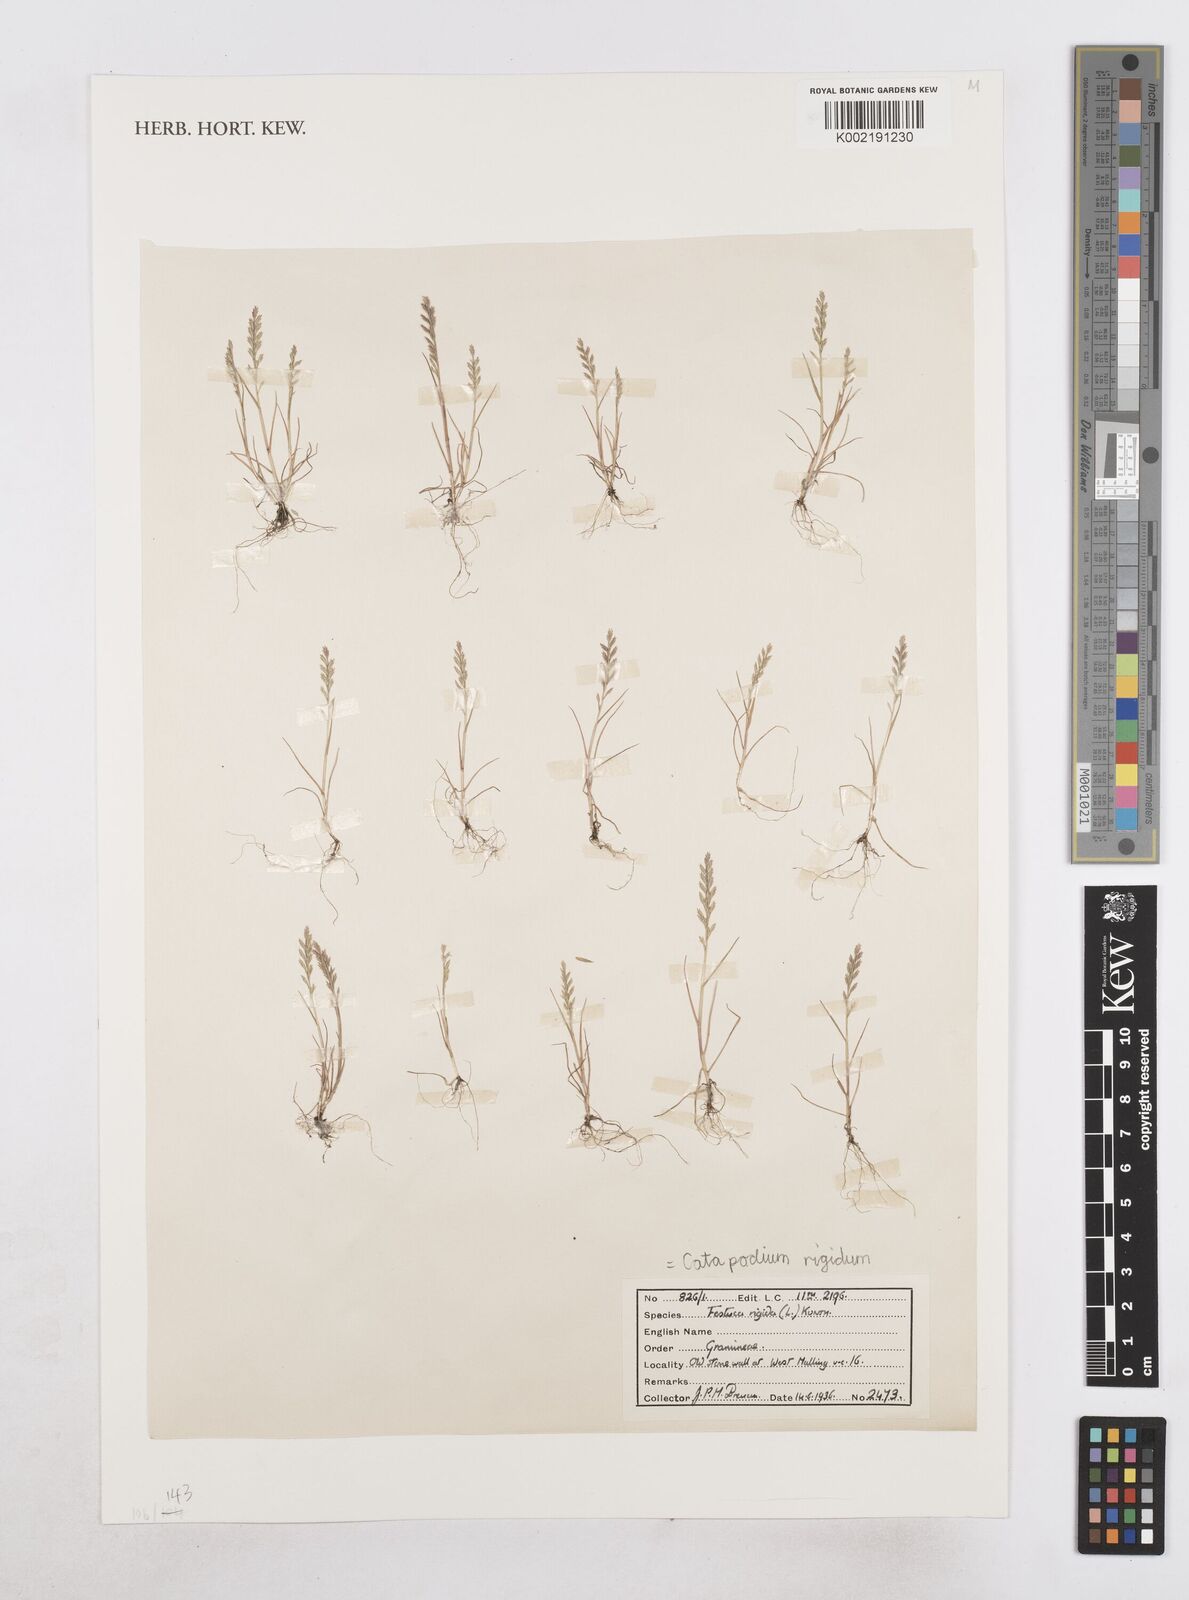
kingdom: Plantae
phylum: Tracheophyta
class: Liliopsida
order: Poales
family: Poaceae
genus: Catapodium
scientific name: Catapodium rigidum
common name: Fern-grass
